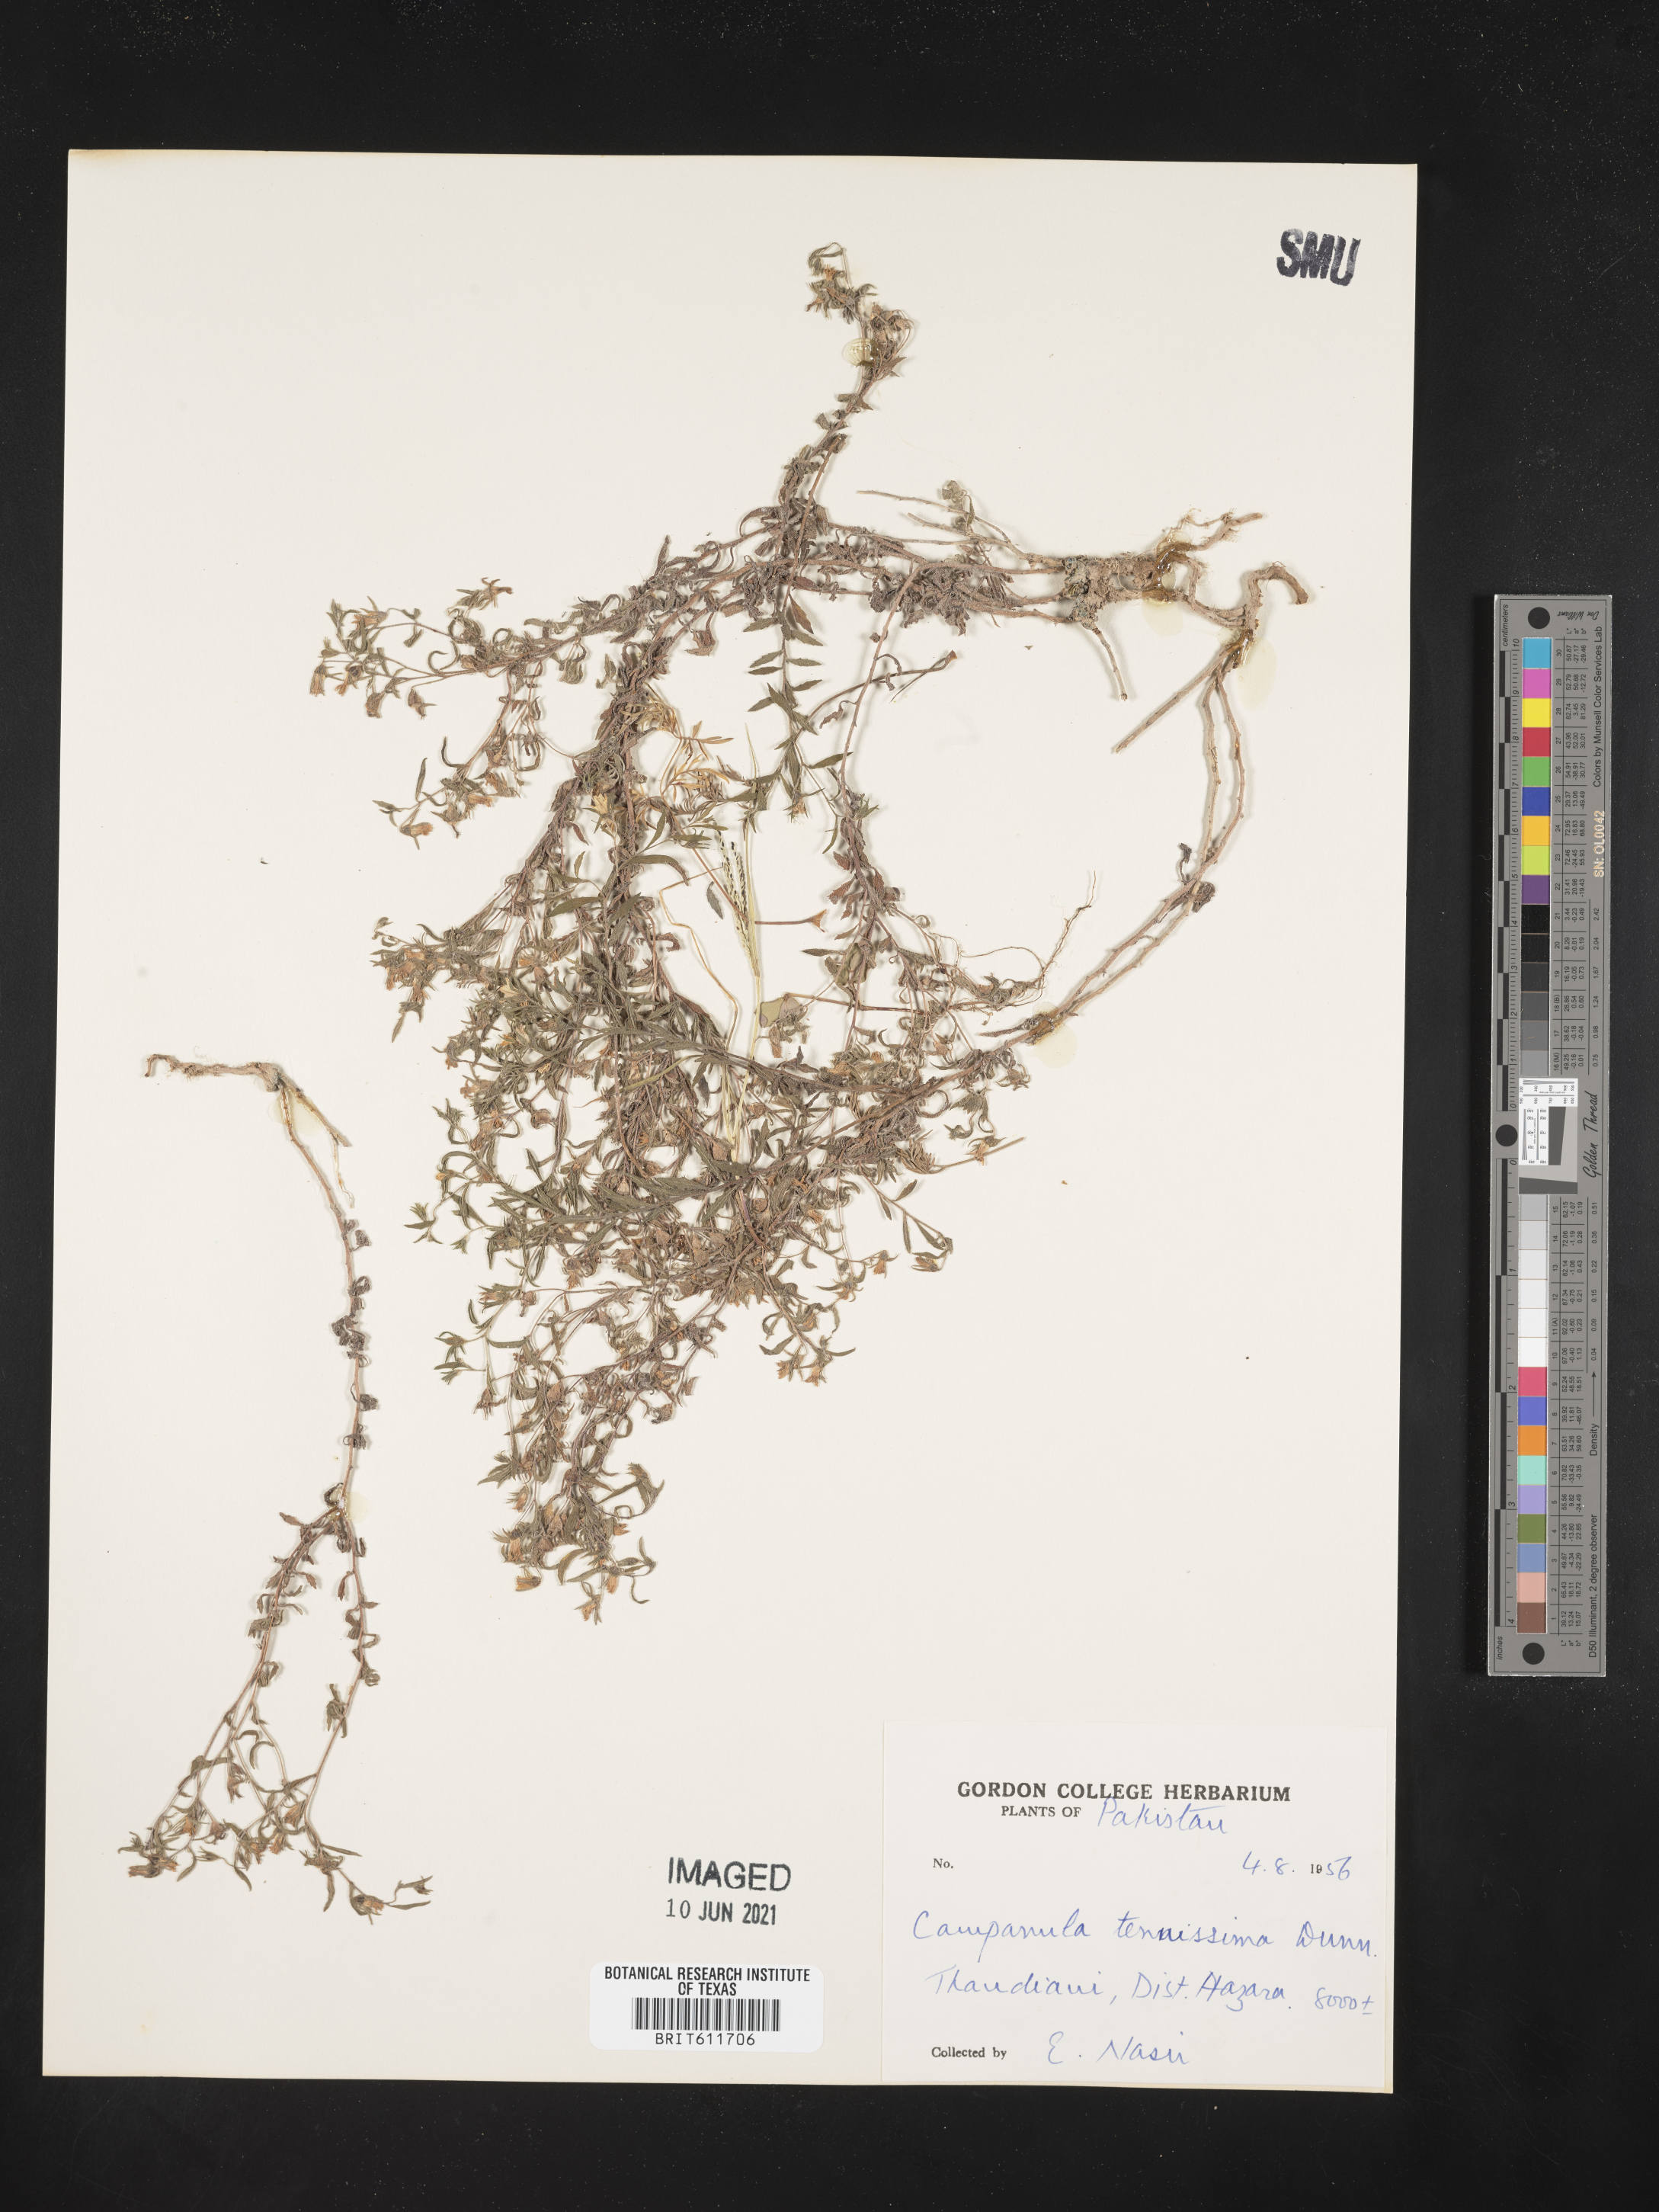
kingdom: Plantae
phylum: Tracheophyta
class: Magnoliopsida
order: Asterales
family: Campanulaceae
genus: Campanula
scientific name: Campanula tenuissima
